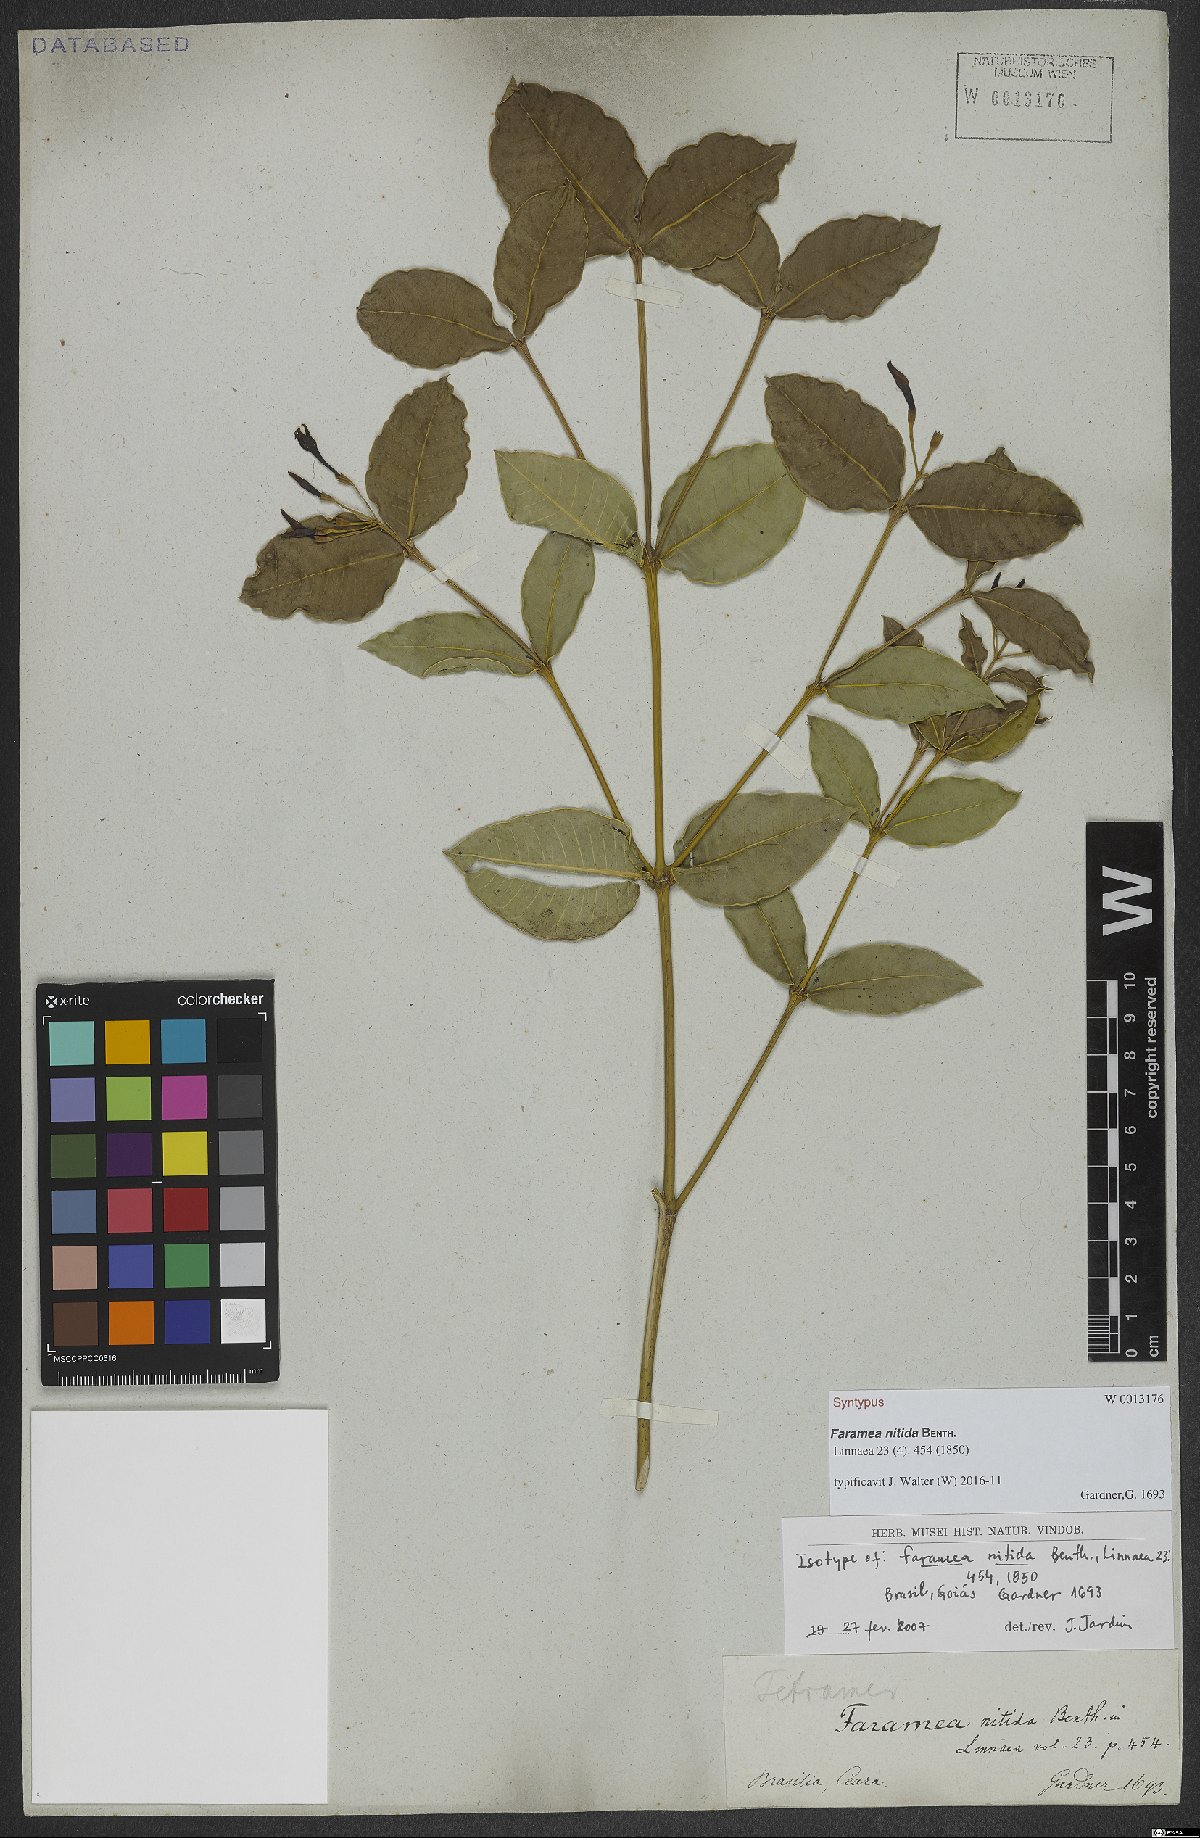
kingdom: Plantae
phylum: Tracheophyta
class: Magnoliopsida
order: Gentianales
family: Rubiaceae
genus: Faramea
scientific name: Faramea nitida
